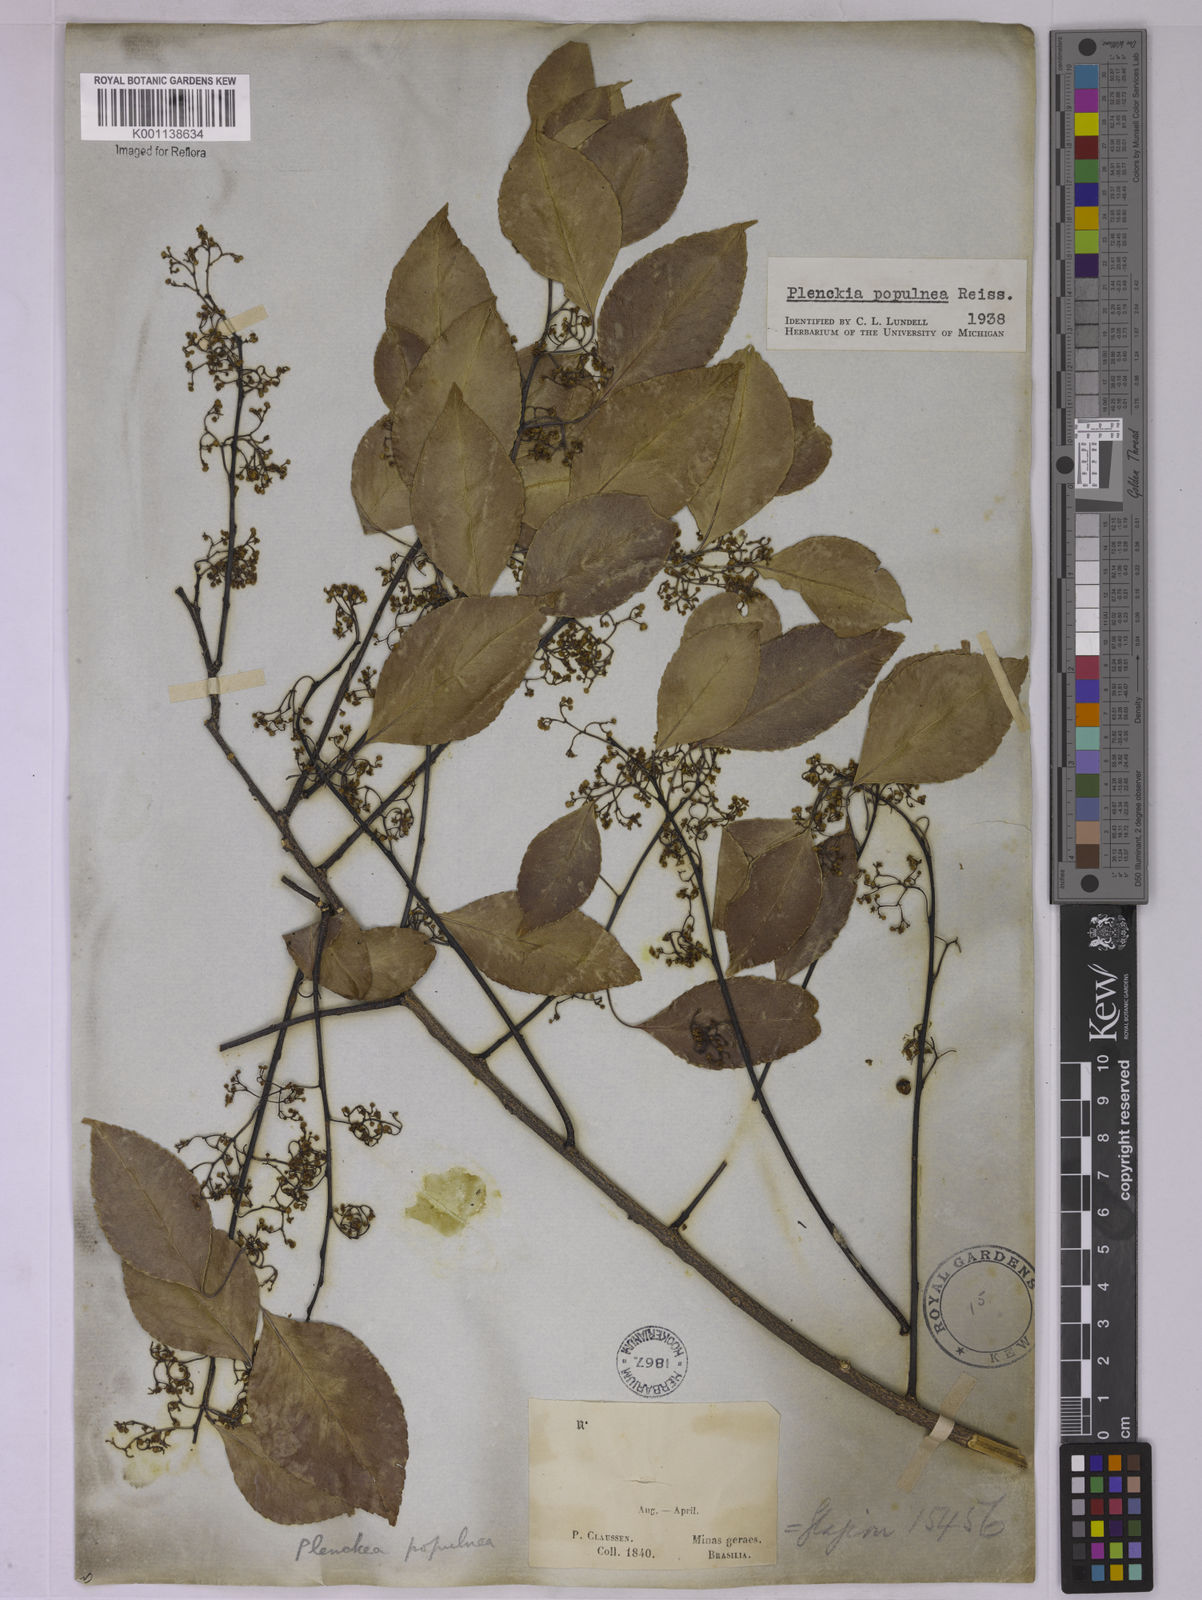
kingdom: Plantae
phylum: Tracheophyta
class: Magnoliopsida
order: Celastrales
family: Celastraceae
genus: Plenckia
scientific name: Plenckia populnea
